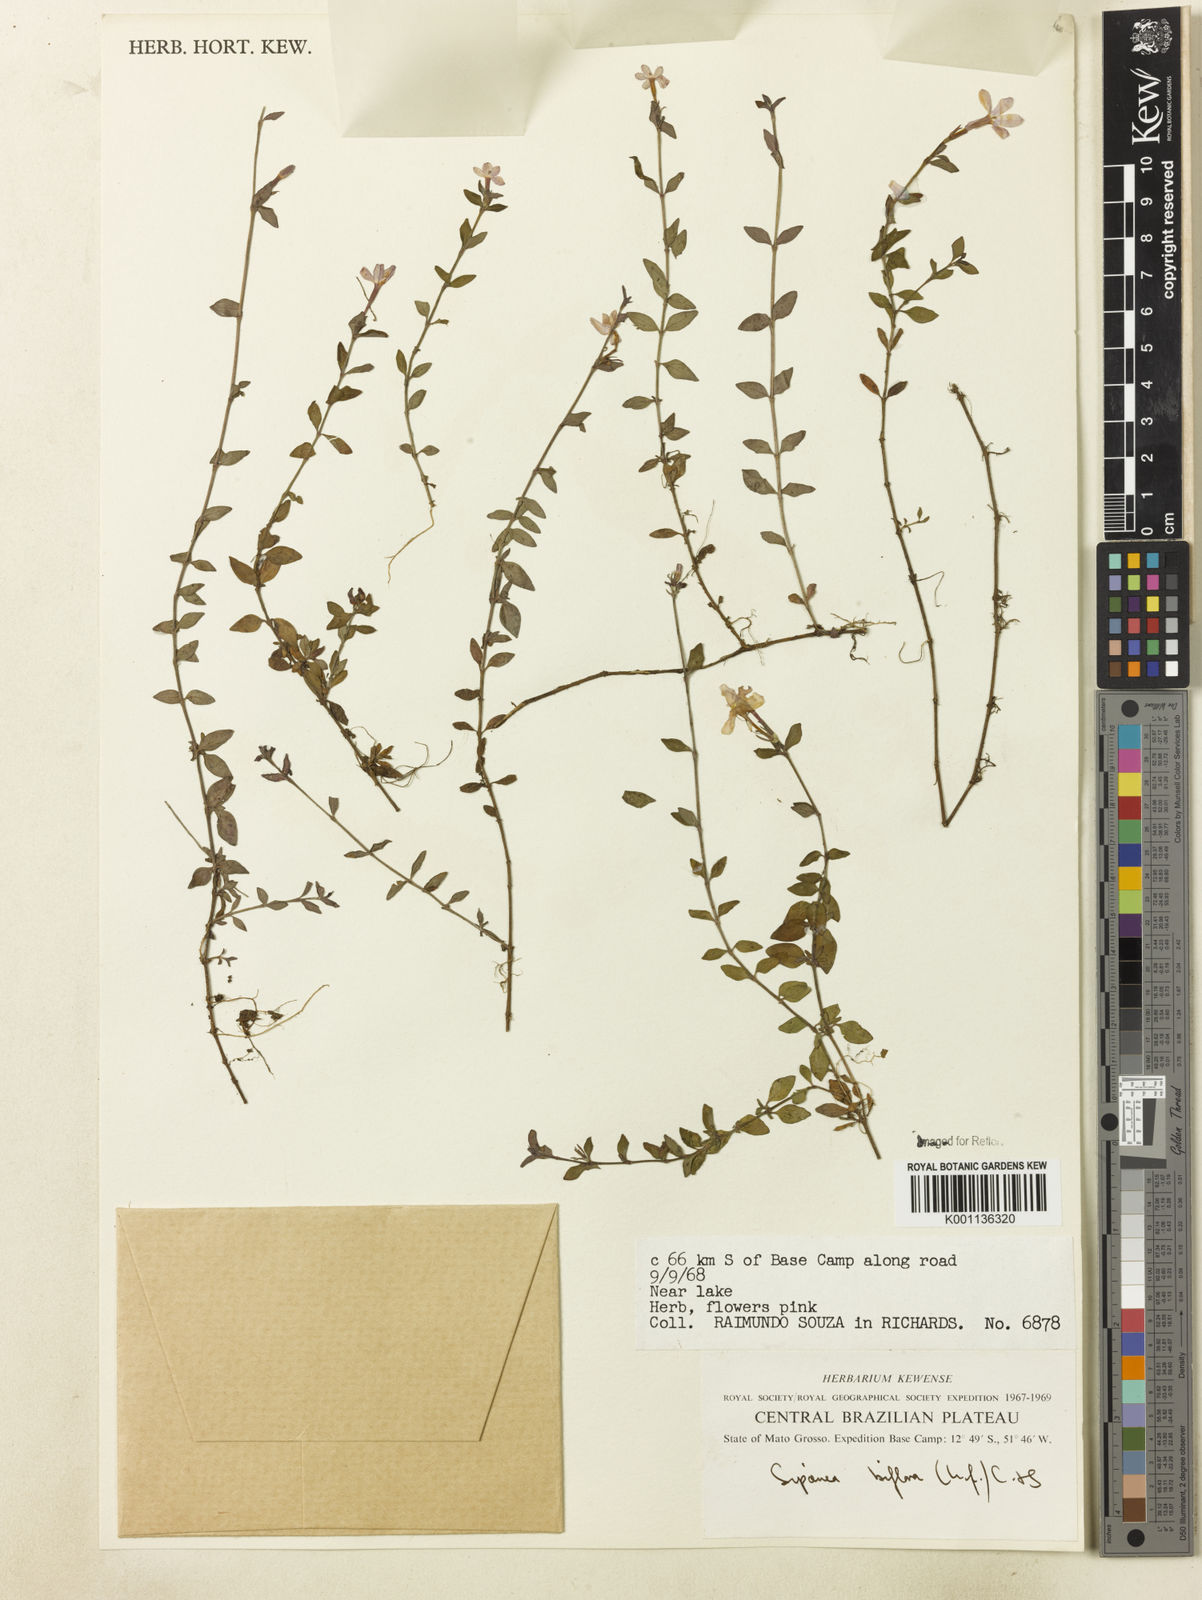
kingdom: Plantae
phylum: Tracheophyta
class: Magnoliopsida
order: Gentianales
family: Rubiaceae
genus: Sipanea
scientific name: Sipanea biflora
